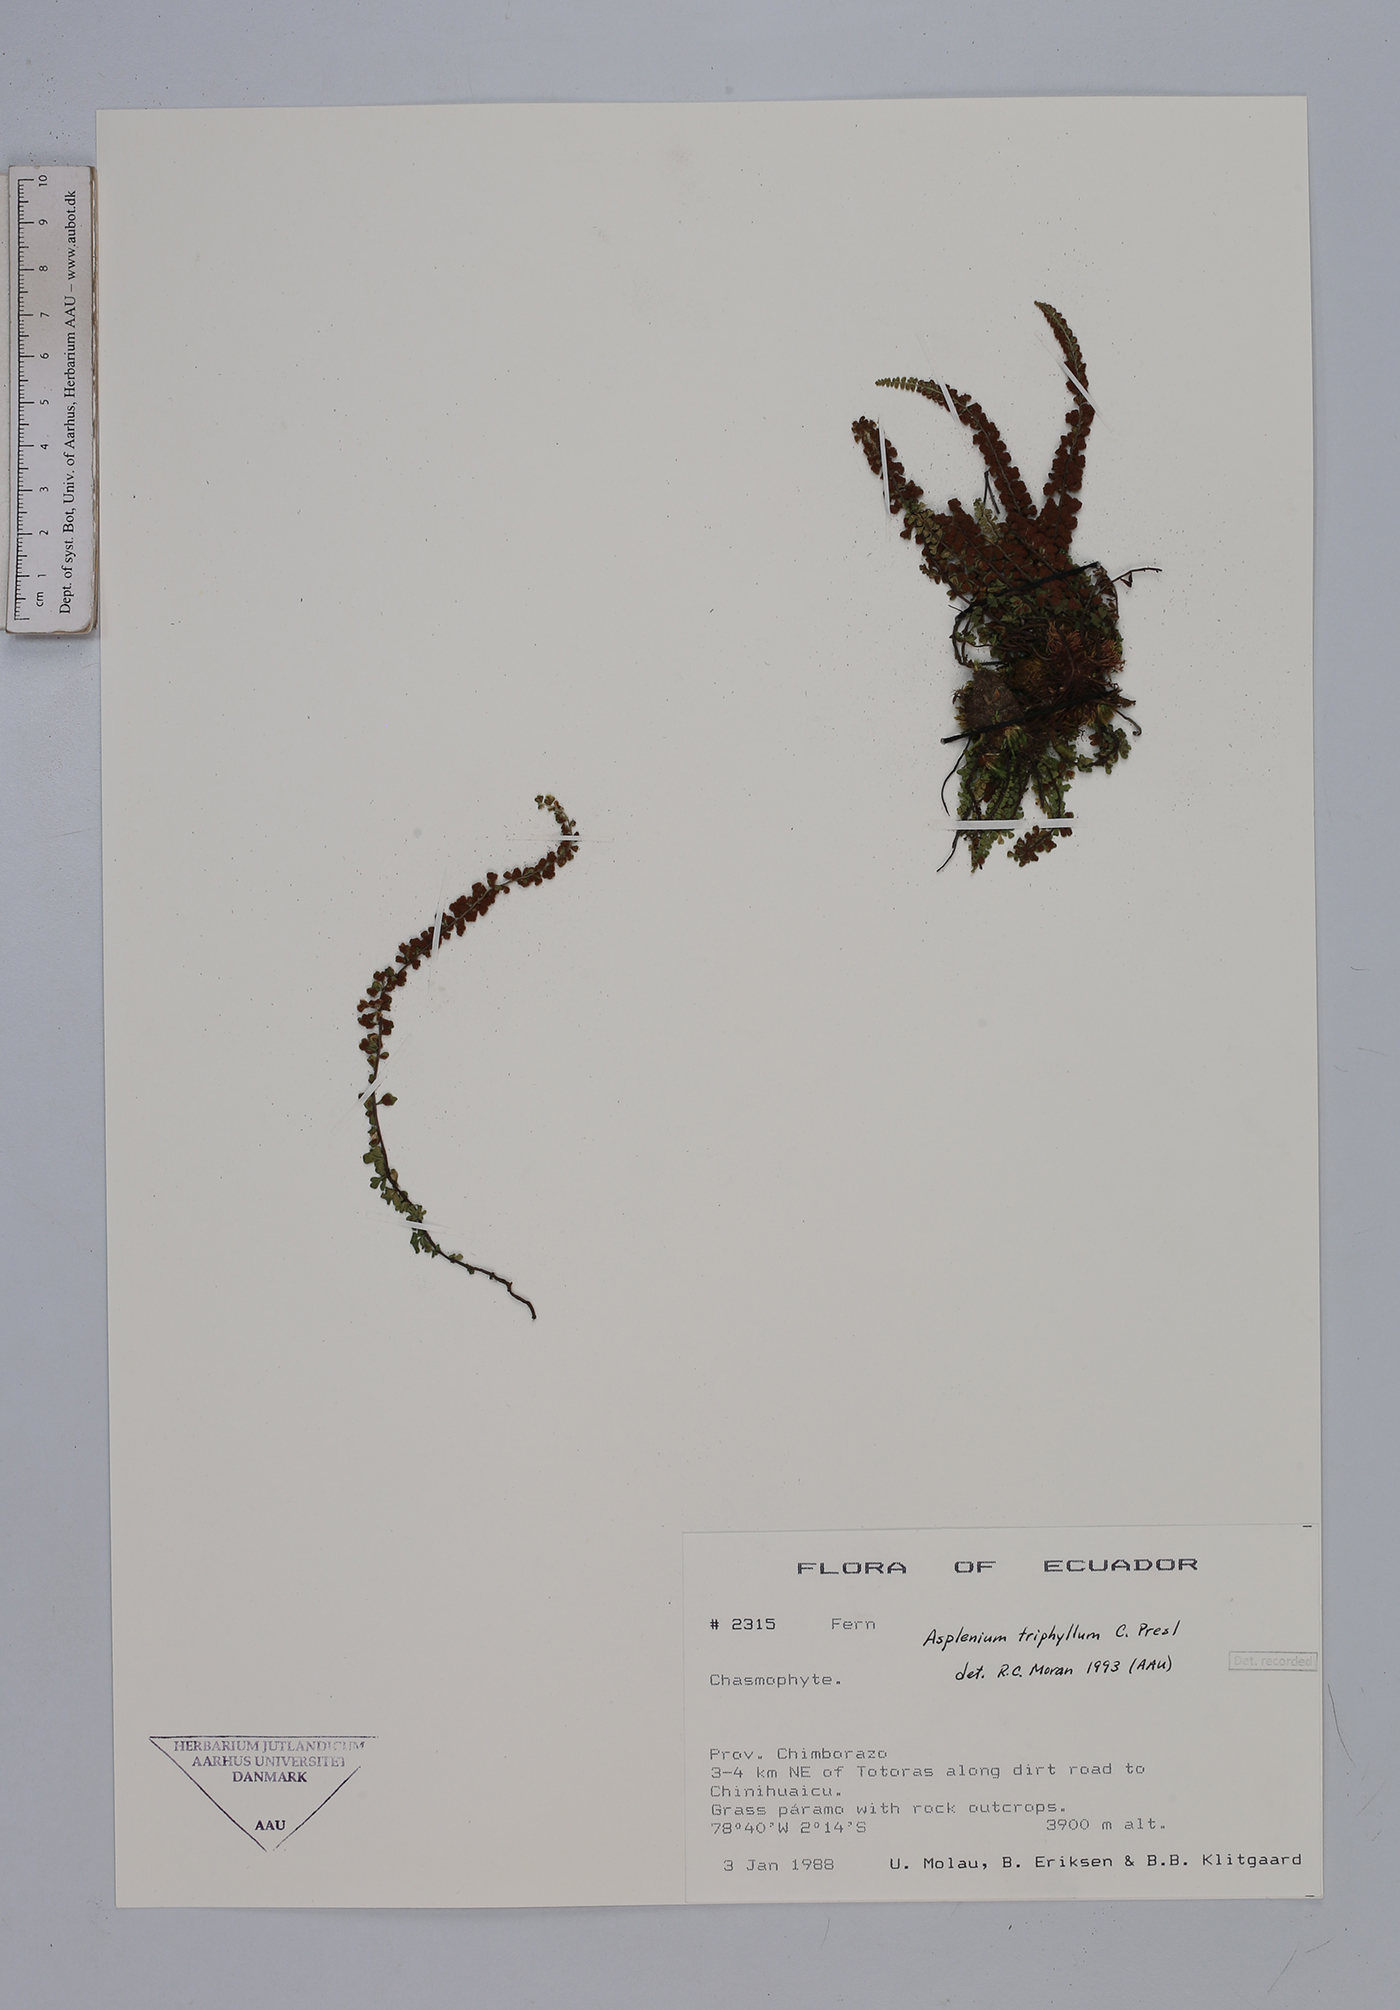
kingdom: Plantae
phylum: Tracheophyta
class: Polypodiopsida
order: Polypodiales
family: Aspleniaceae
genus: Asplenium
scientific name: Asplenium triphyllum
